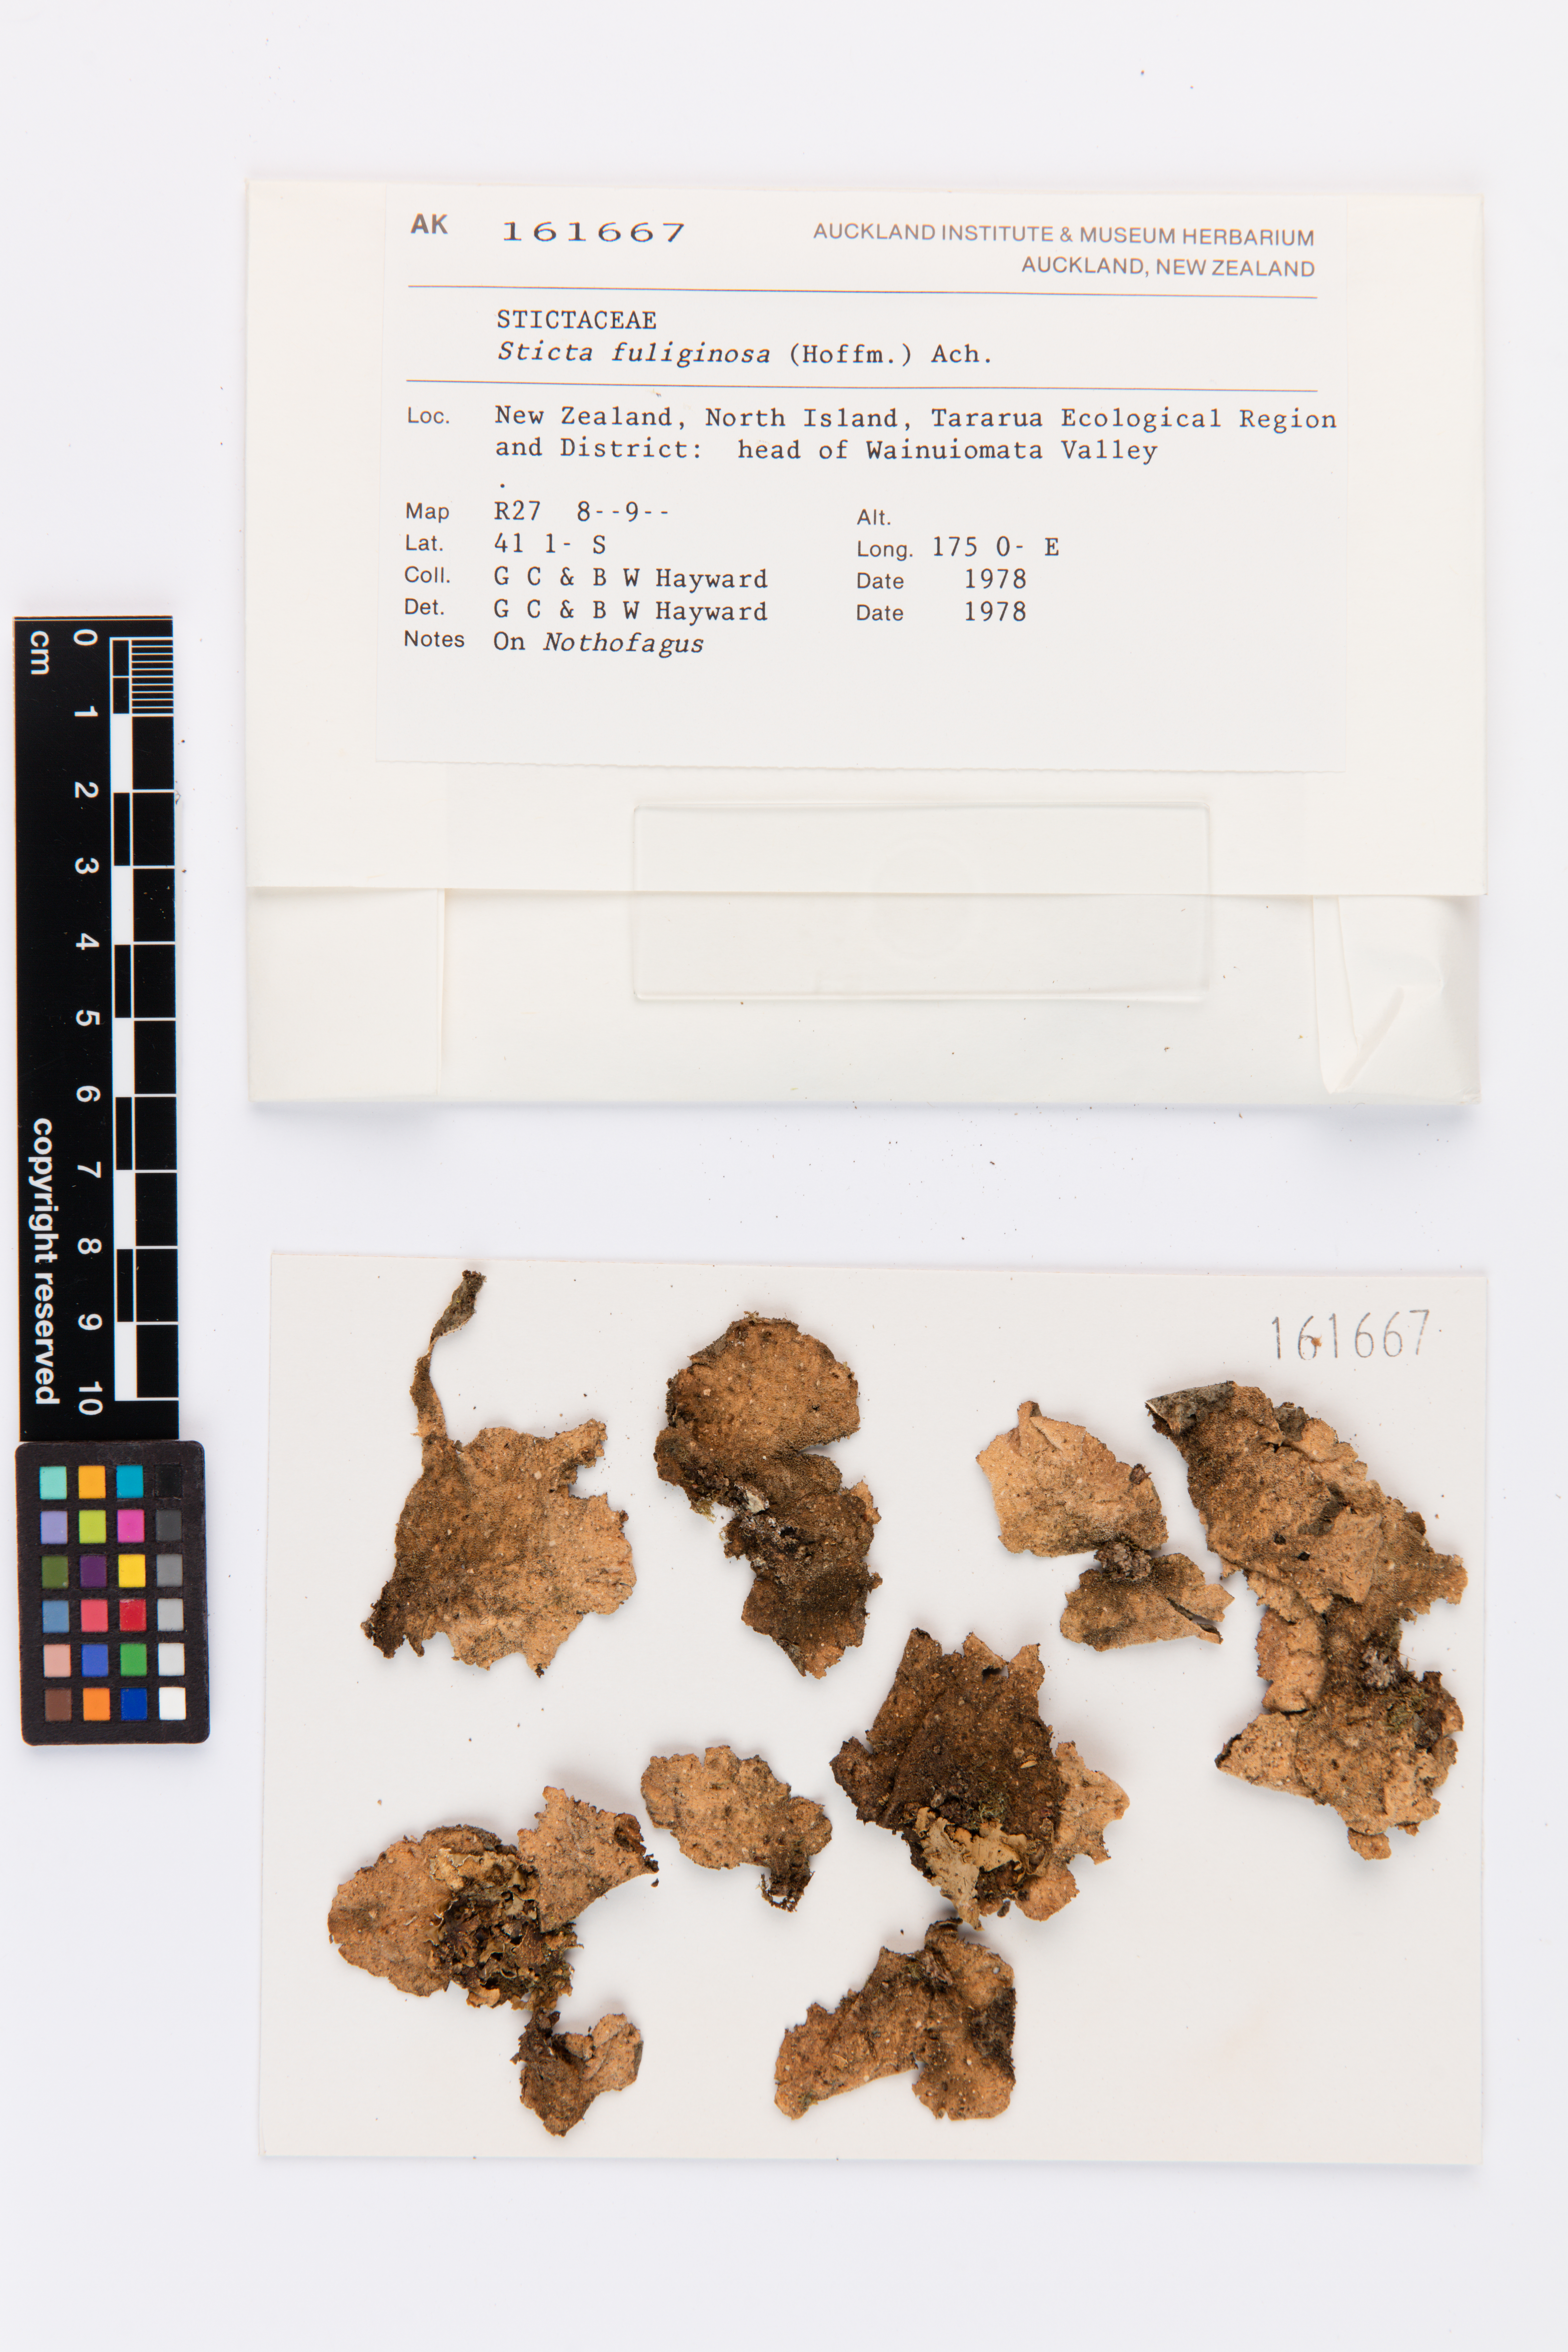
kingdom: Fungi
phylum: Ascomycota
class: Lecanoromycetes
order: Peltigerales
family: Lobariaceae
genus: Sticta
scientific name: Sticta fuliginosa
